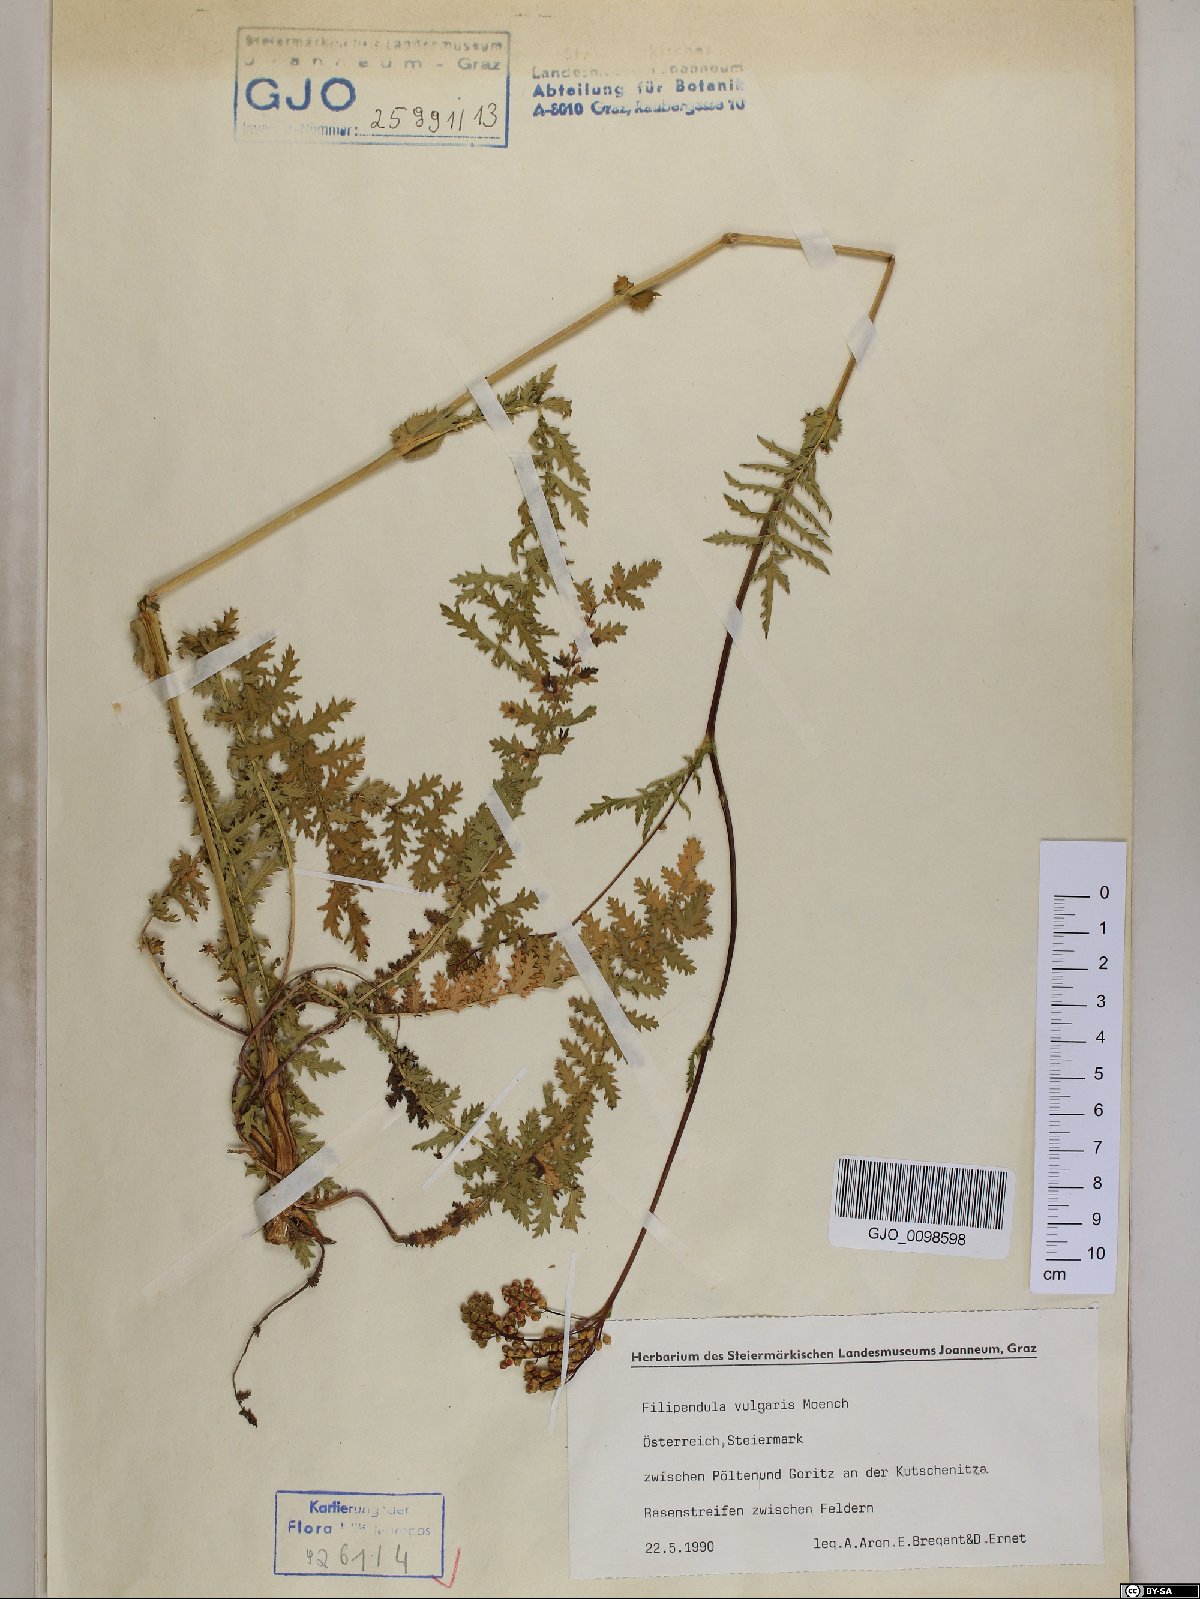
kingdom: Plantae
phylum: Tracheophyta
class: Magnoliopsida
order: Rosales
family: Rosaceae
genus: Filipendula
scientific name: Filipendula vulgaris
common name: Dropwort
